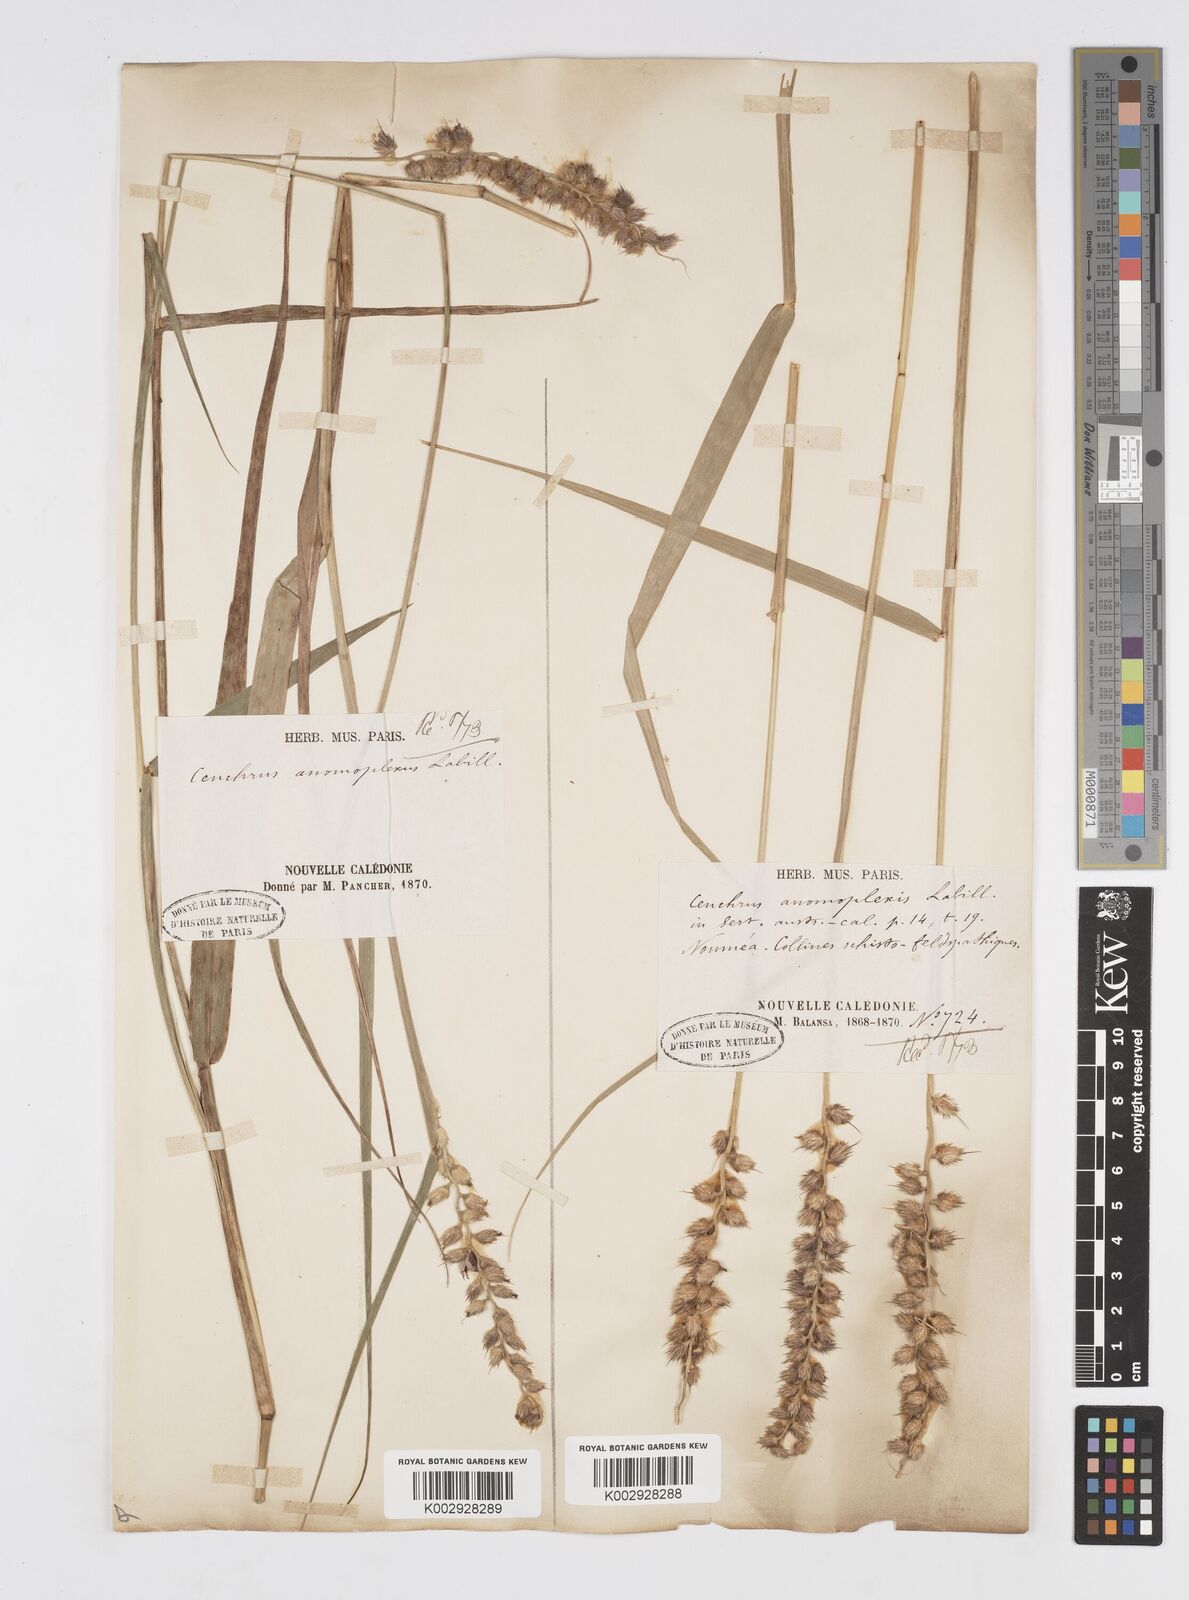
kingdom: Plantae
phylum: Tracheophyta
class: Liliopsida
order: Poales
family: Poaceae
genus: Cenchrus
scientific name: Cenchrus caliculatus
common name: Large bur grass
